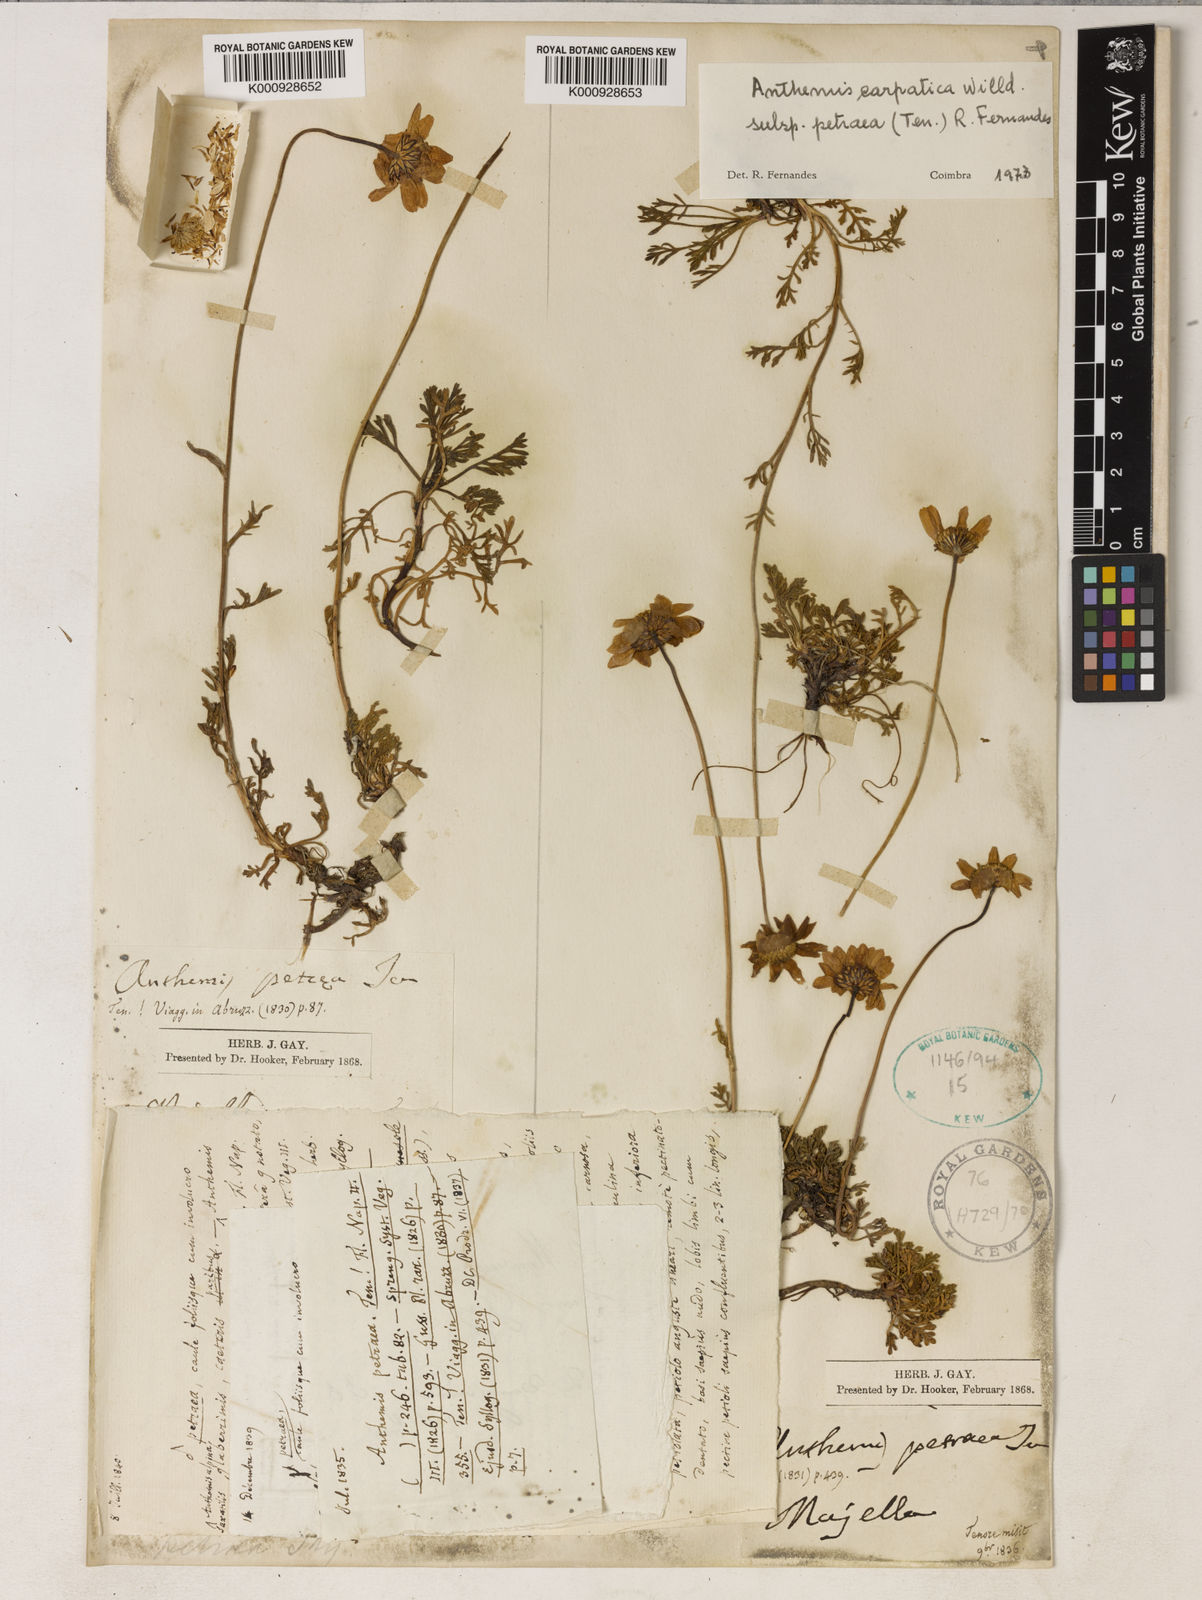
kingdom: Plantae
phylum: Tracheophyta
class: Magnoliopsida
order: Asterales
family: Asteraceae
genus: Anthemis
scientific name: Anthemis cretica
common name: Mountain dog-daisy
